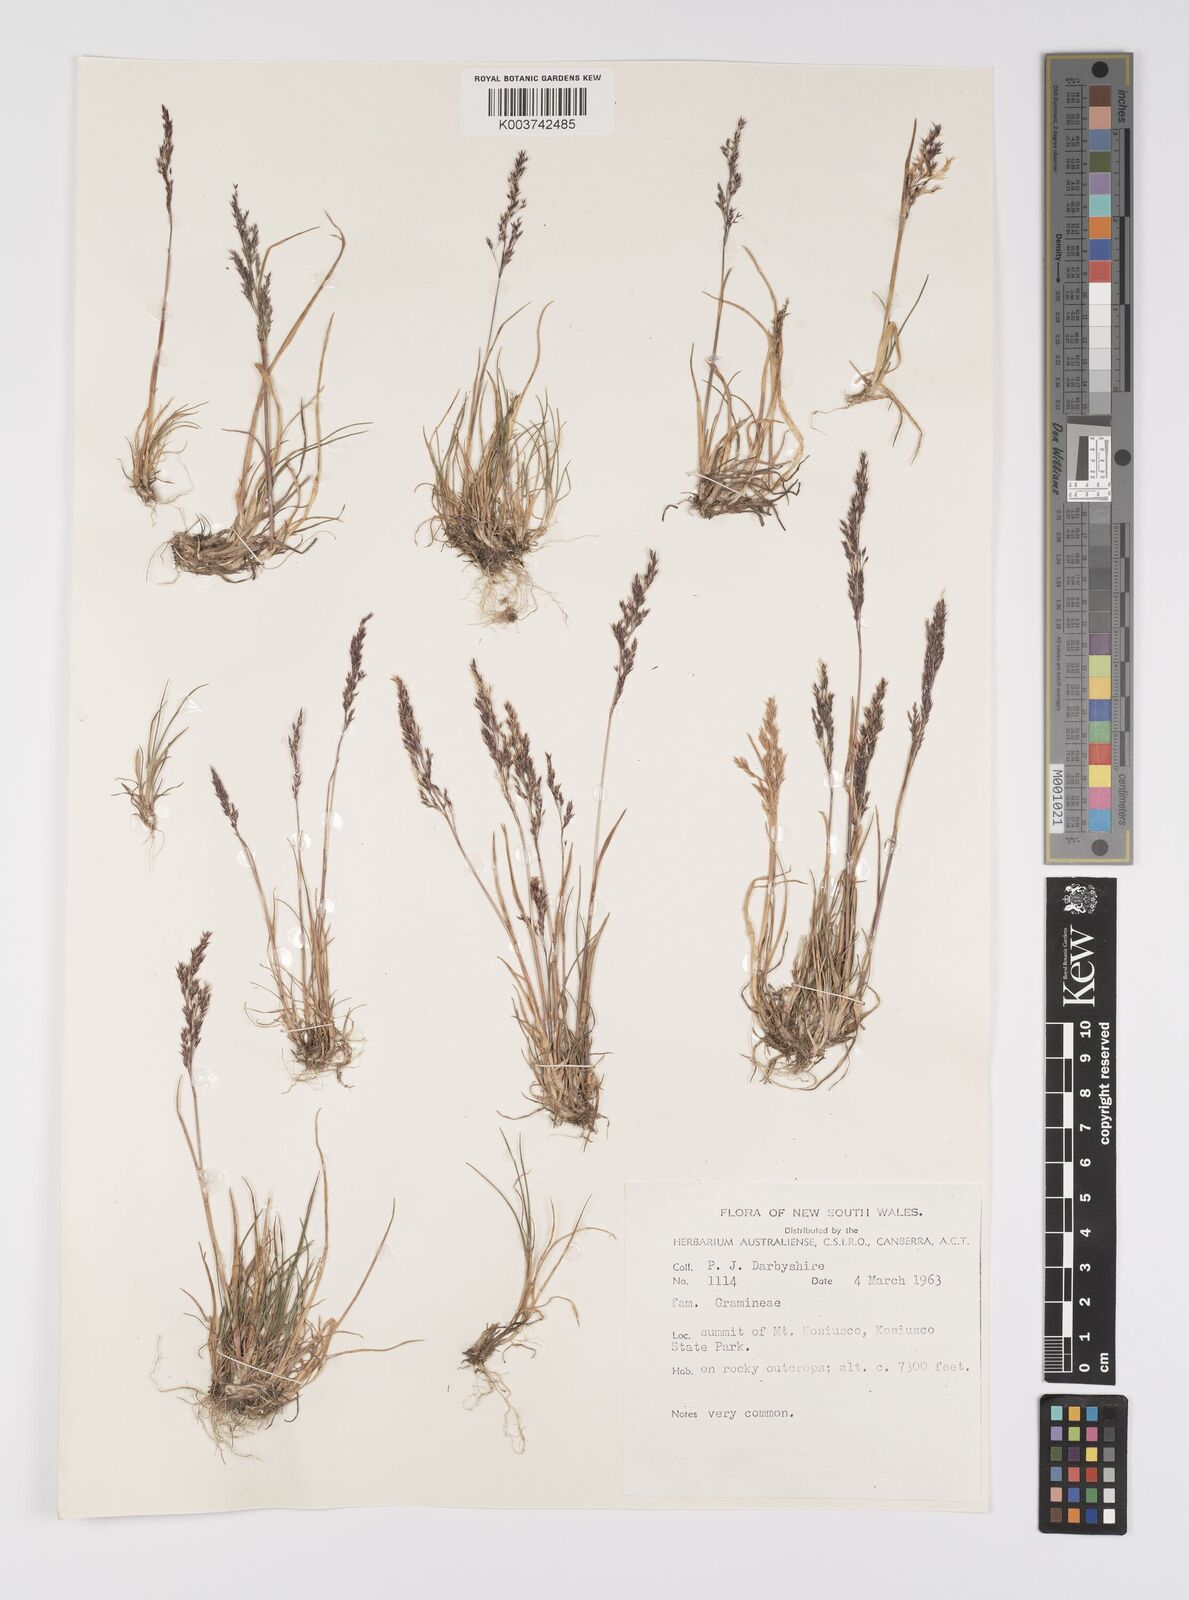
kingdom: Plantae
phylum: Tracheophyta
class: Liliopsida
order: Poales
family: Poaceae
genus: Poa
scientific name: Poa
